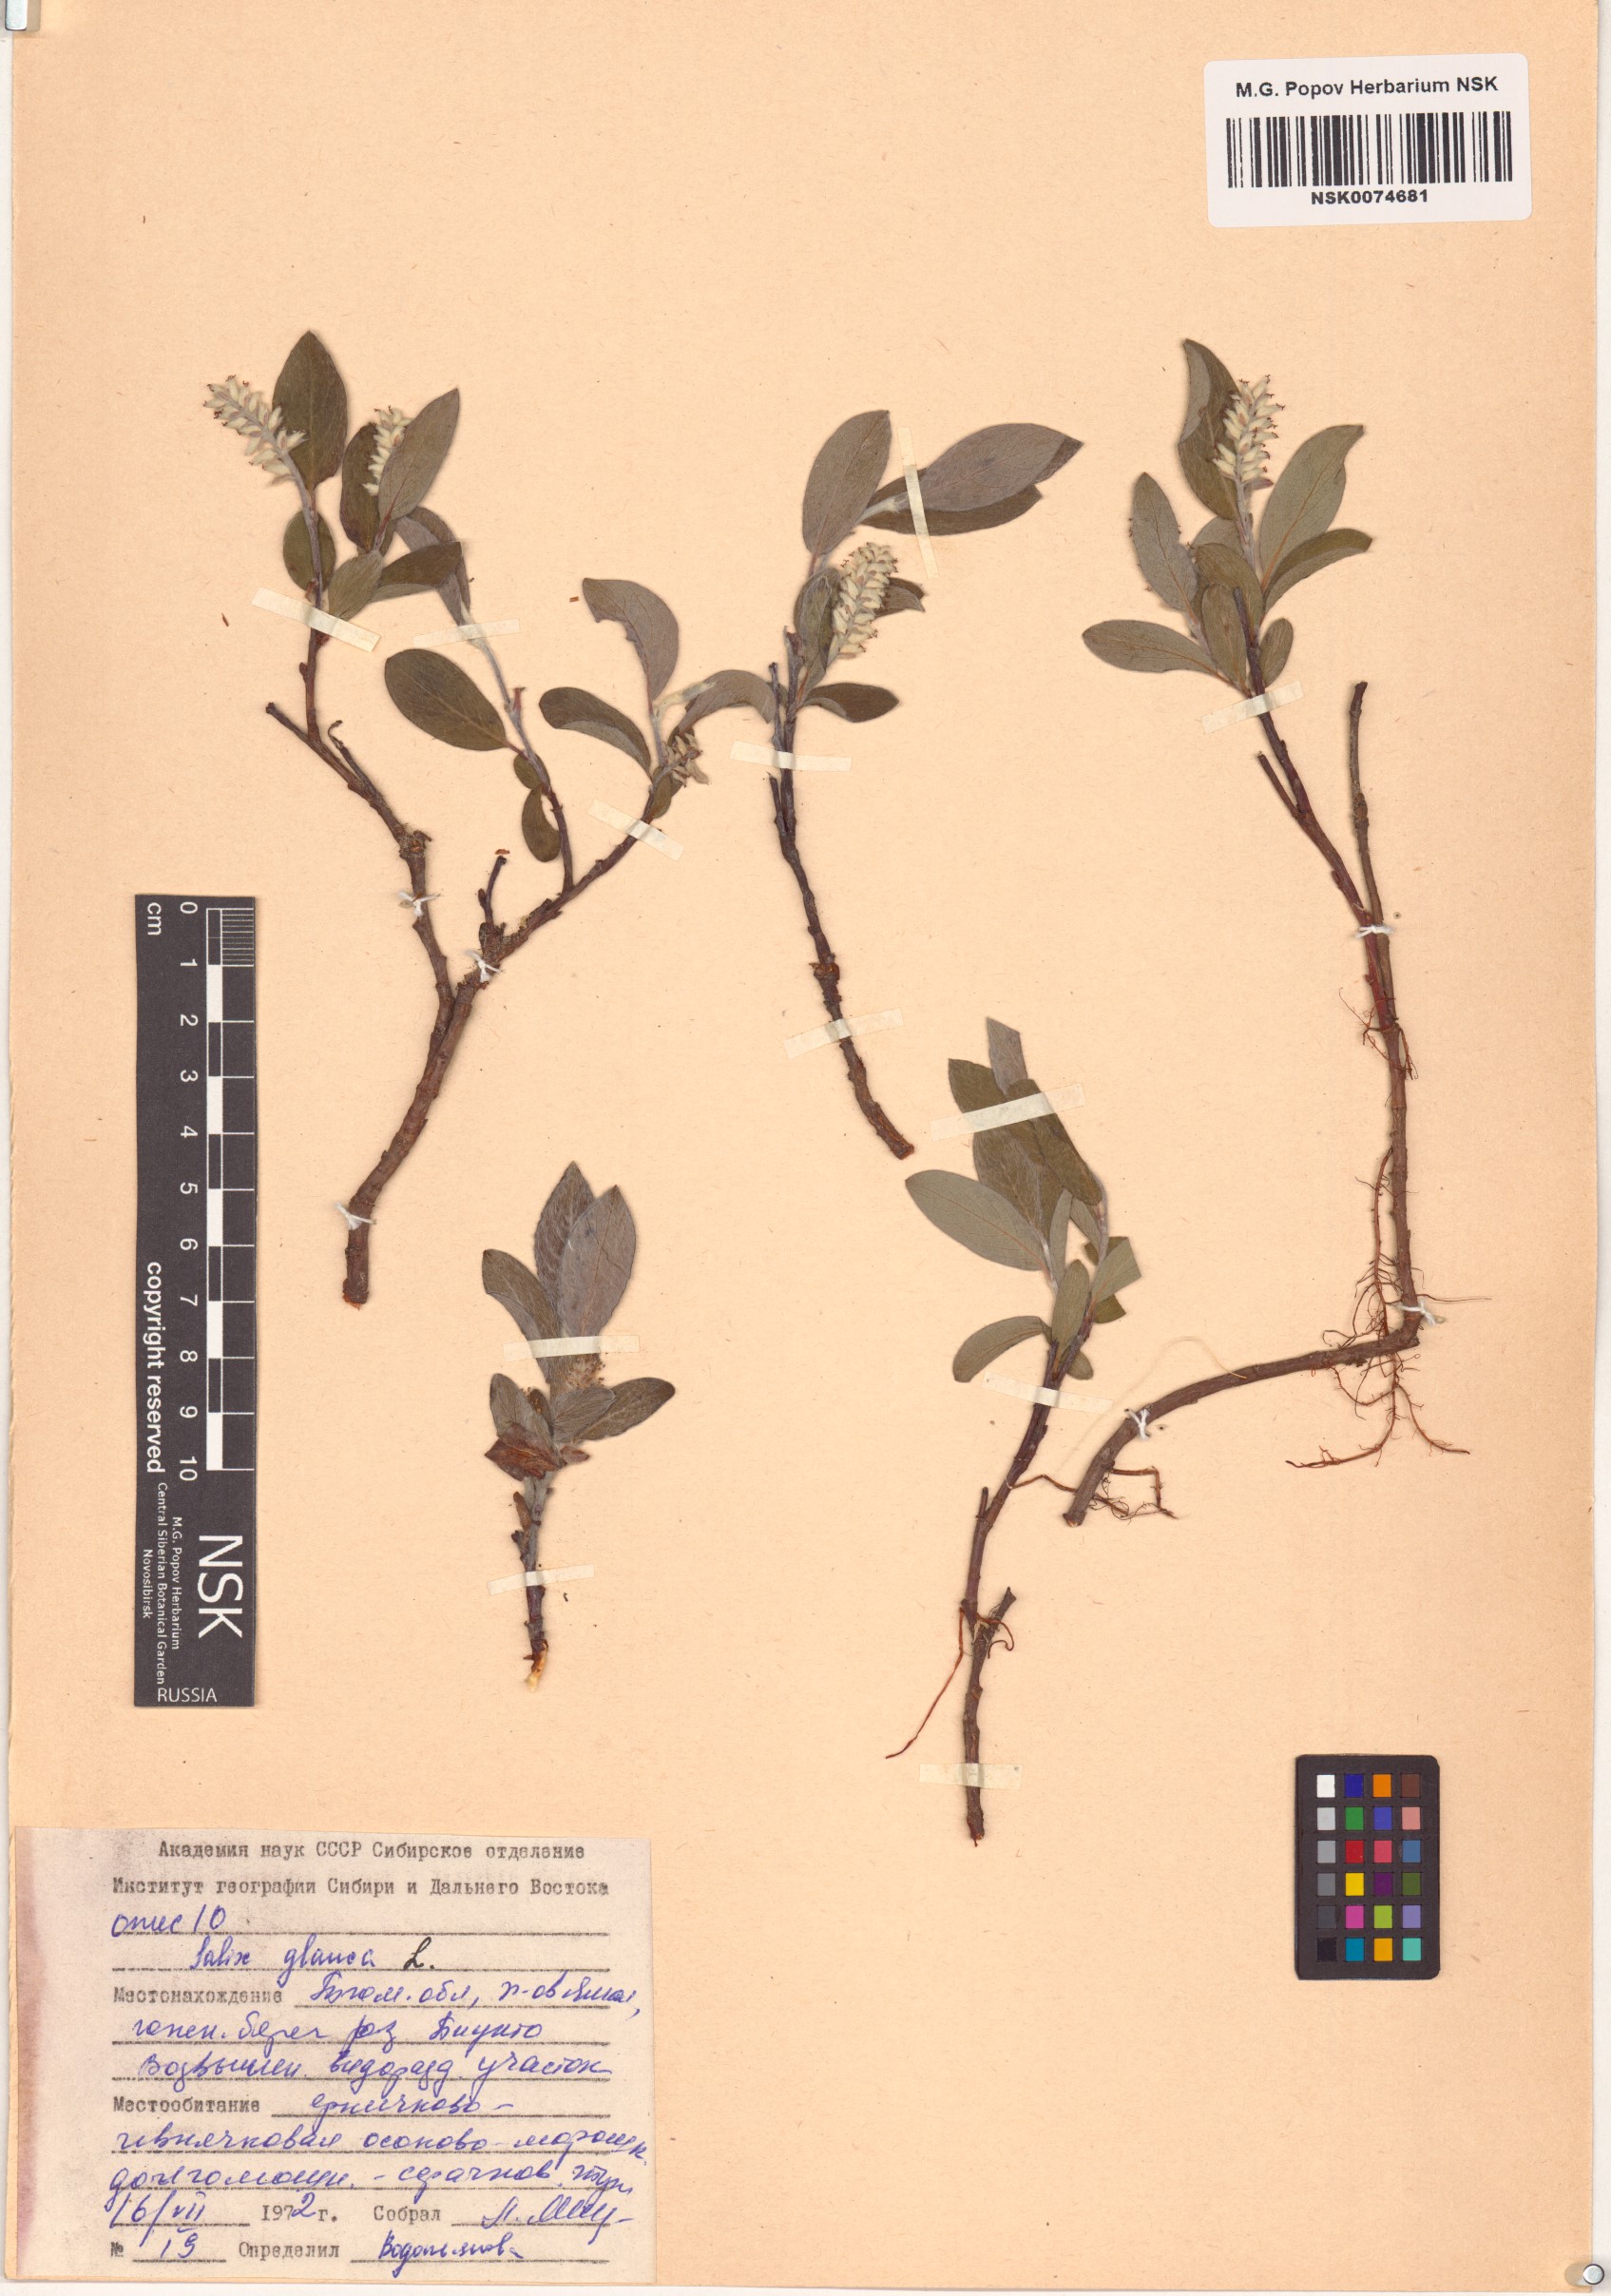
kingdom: Plantae
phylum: Tracheophyta
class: Magnoliopsida
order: Malpighiales
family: Salicaceae
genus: Salix
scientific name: Salix glauca
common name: Glaucous willow
